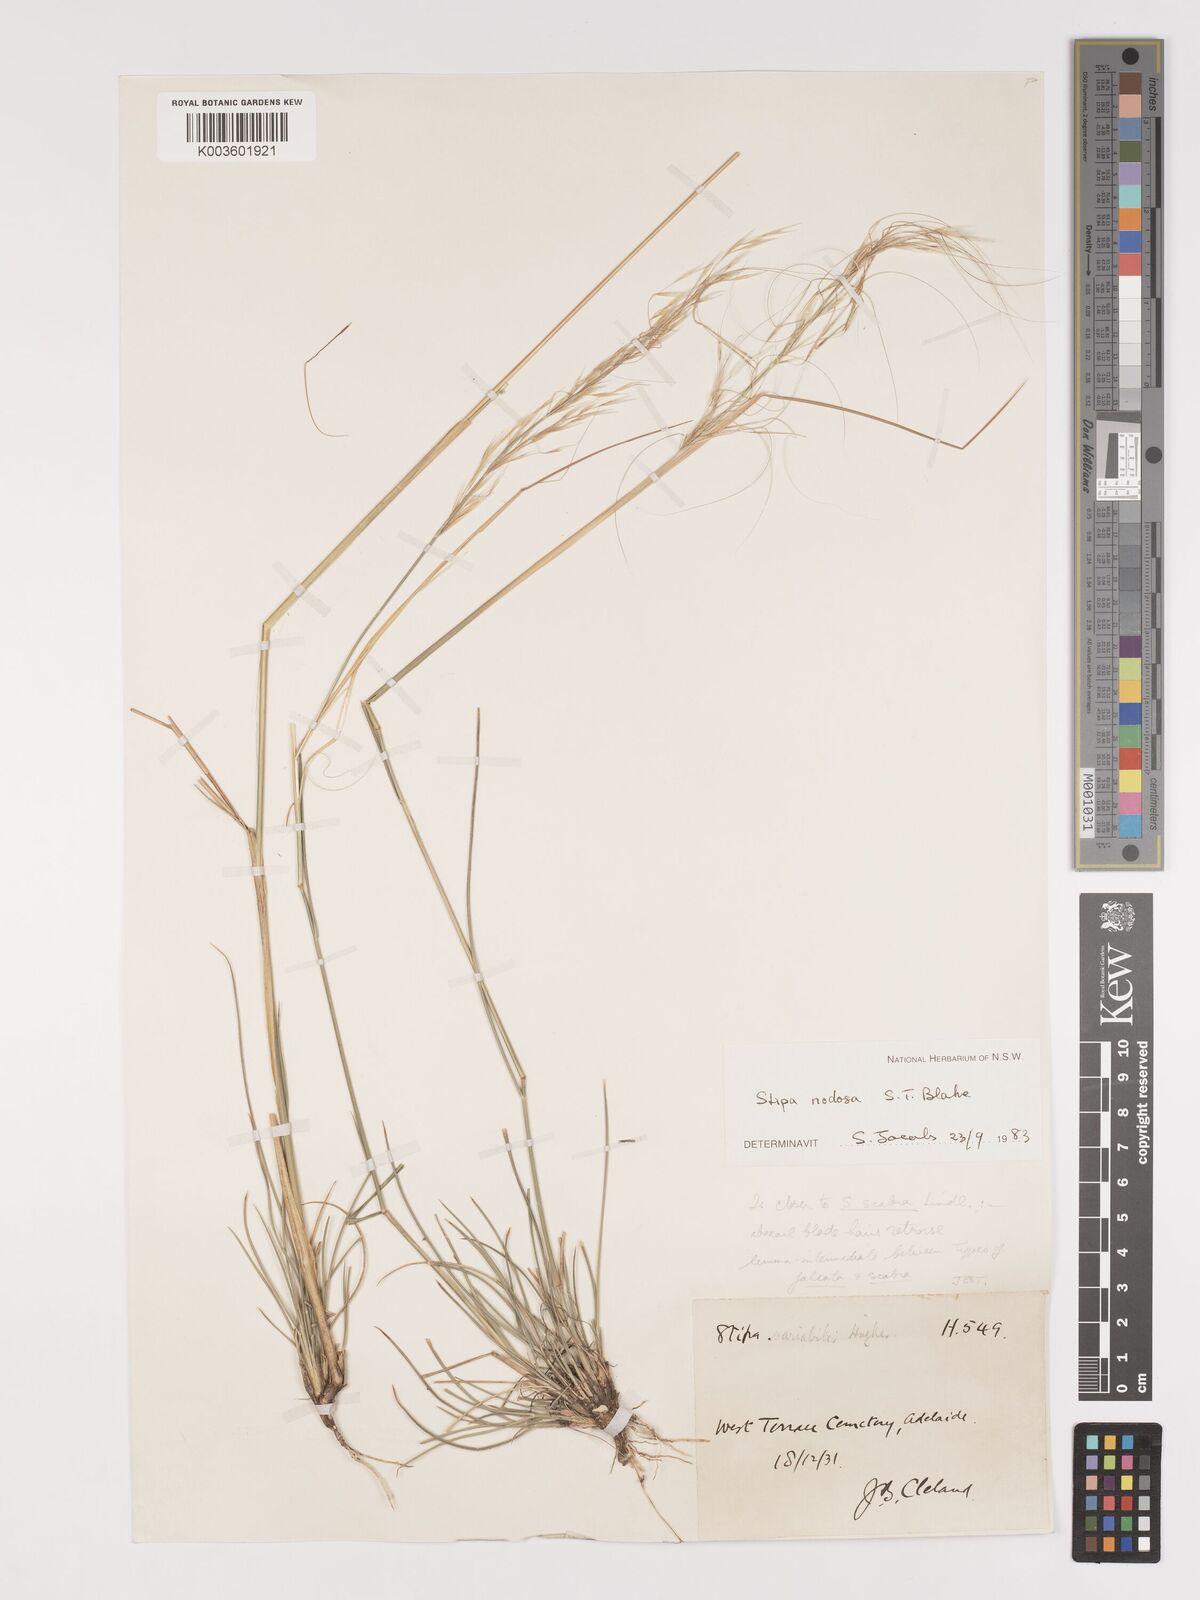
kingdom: Plantae
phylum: Tracheophyta
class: Liliopsida
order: Poales
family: Poaceae
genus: Austrostipa
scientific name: Austrostipa nodosa
